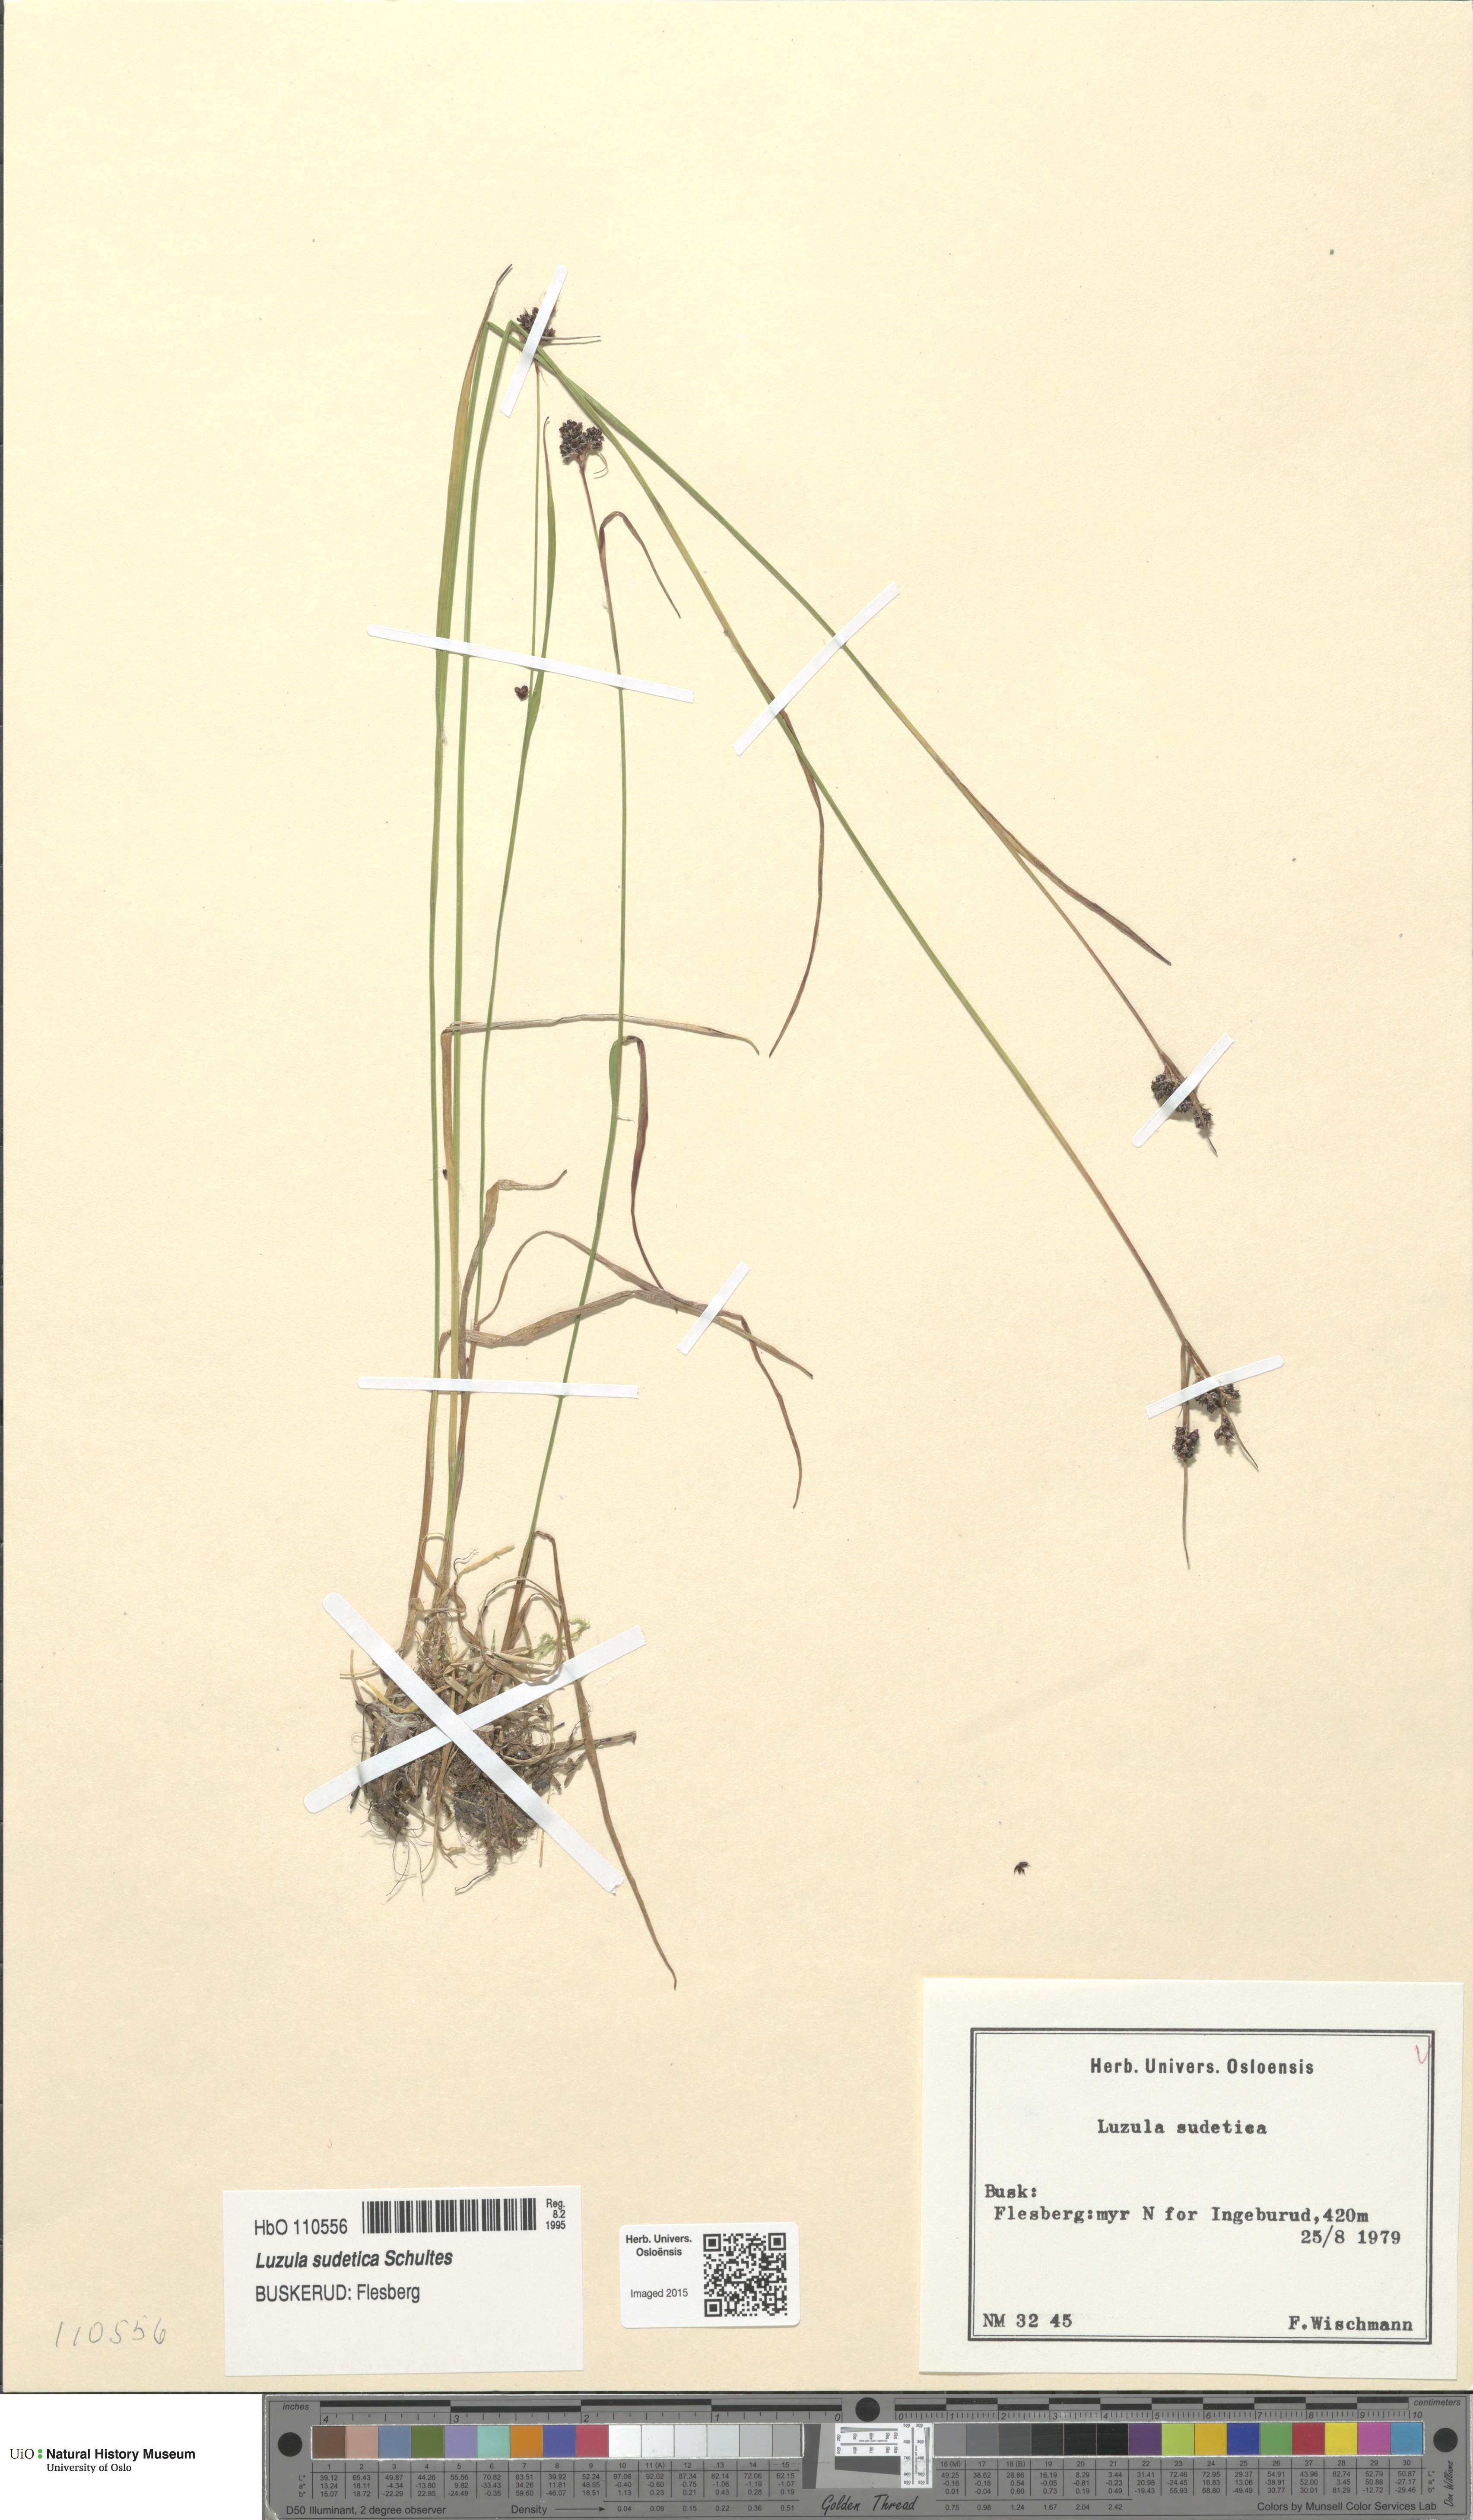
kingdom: Plantae
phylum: Tracheophyta
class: Liliopsida
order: Poales
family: Juncaceae
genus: Luzula
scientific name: Luzula sudetica
